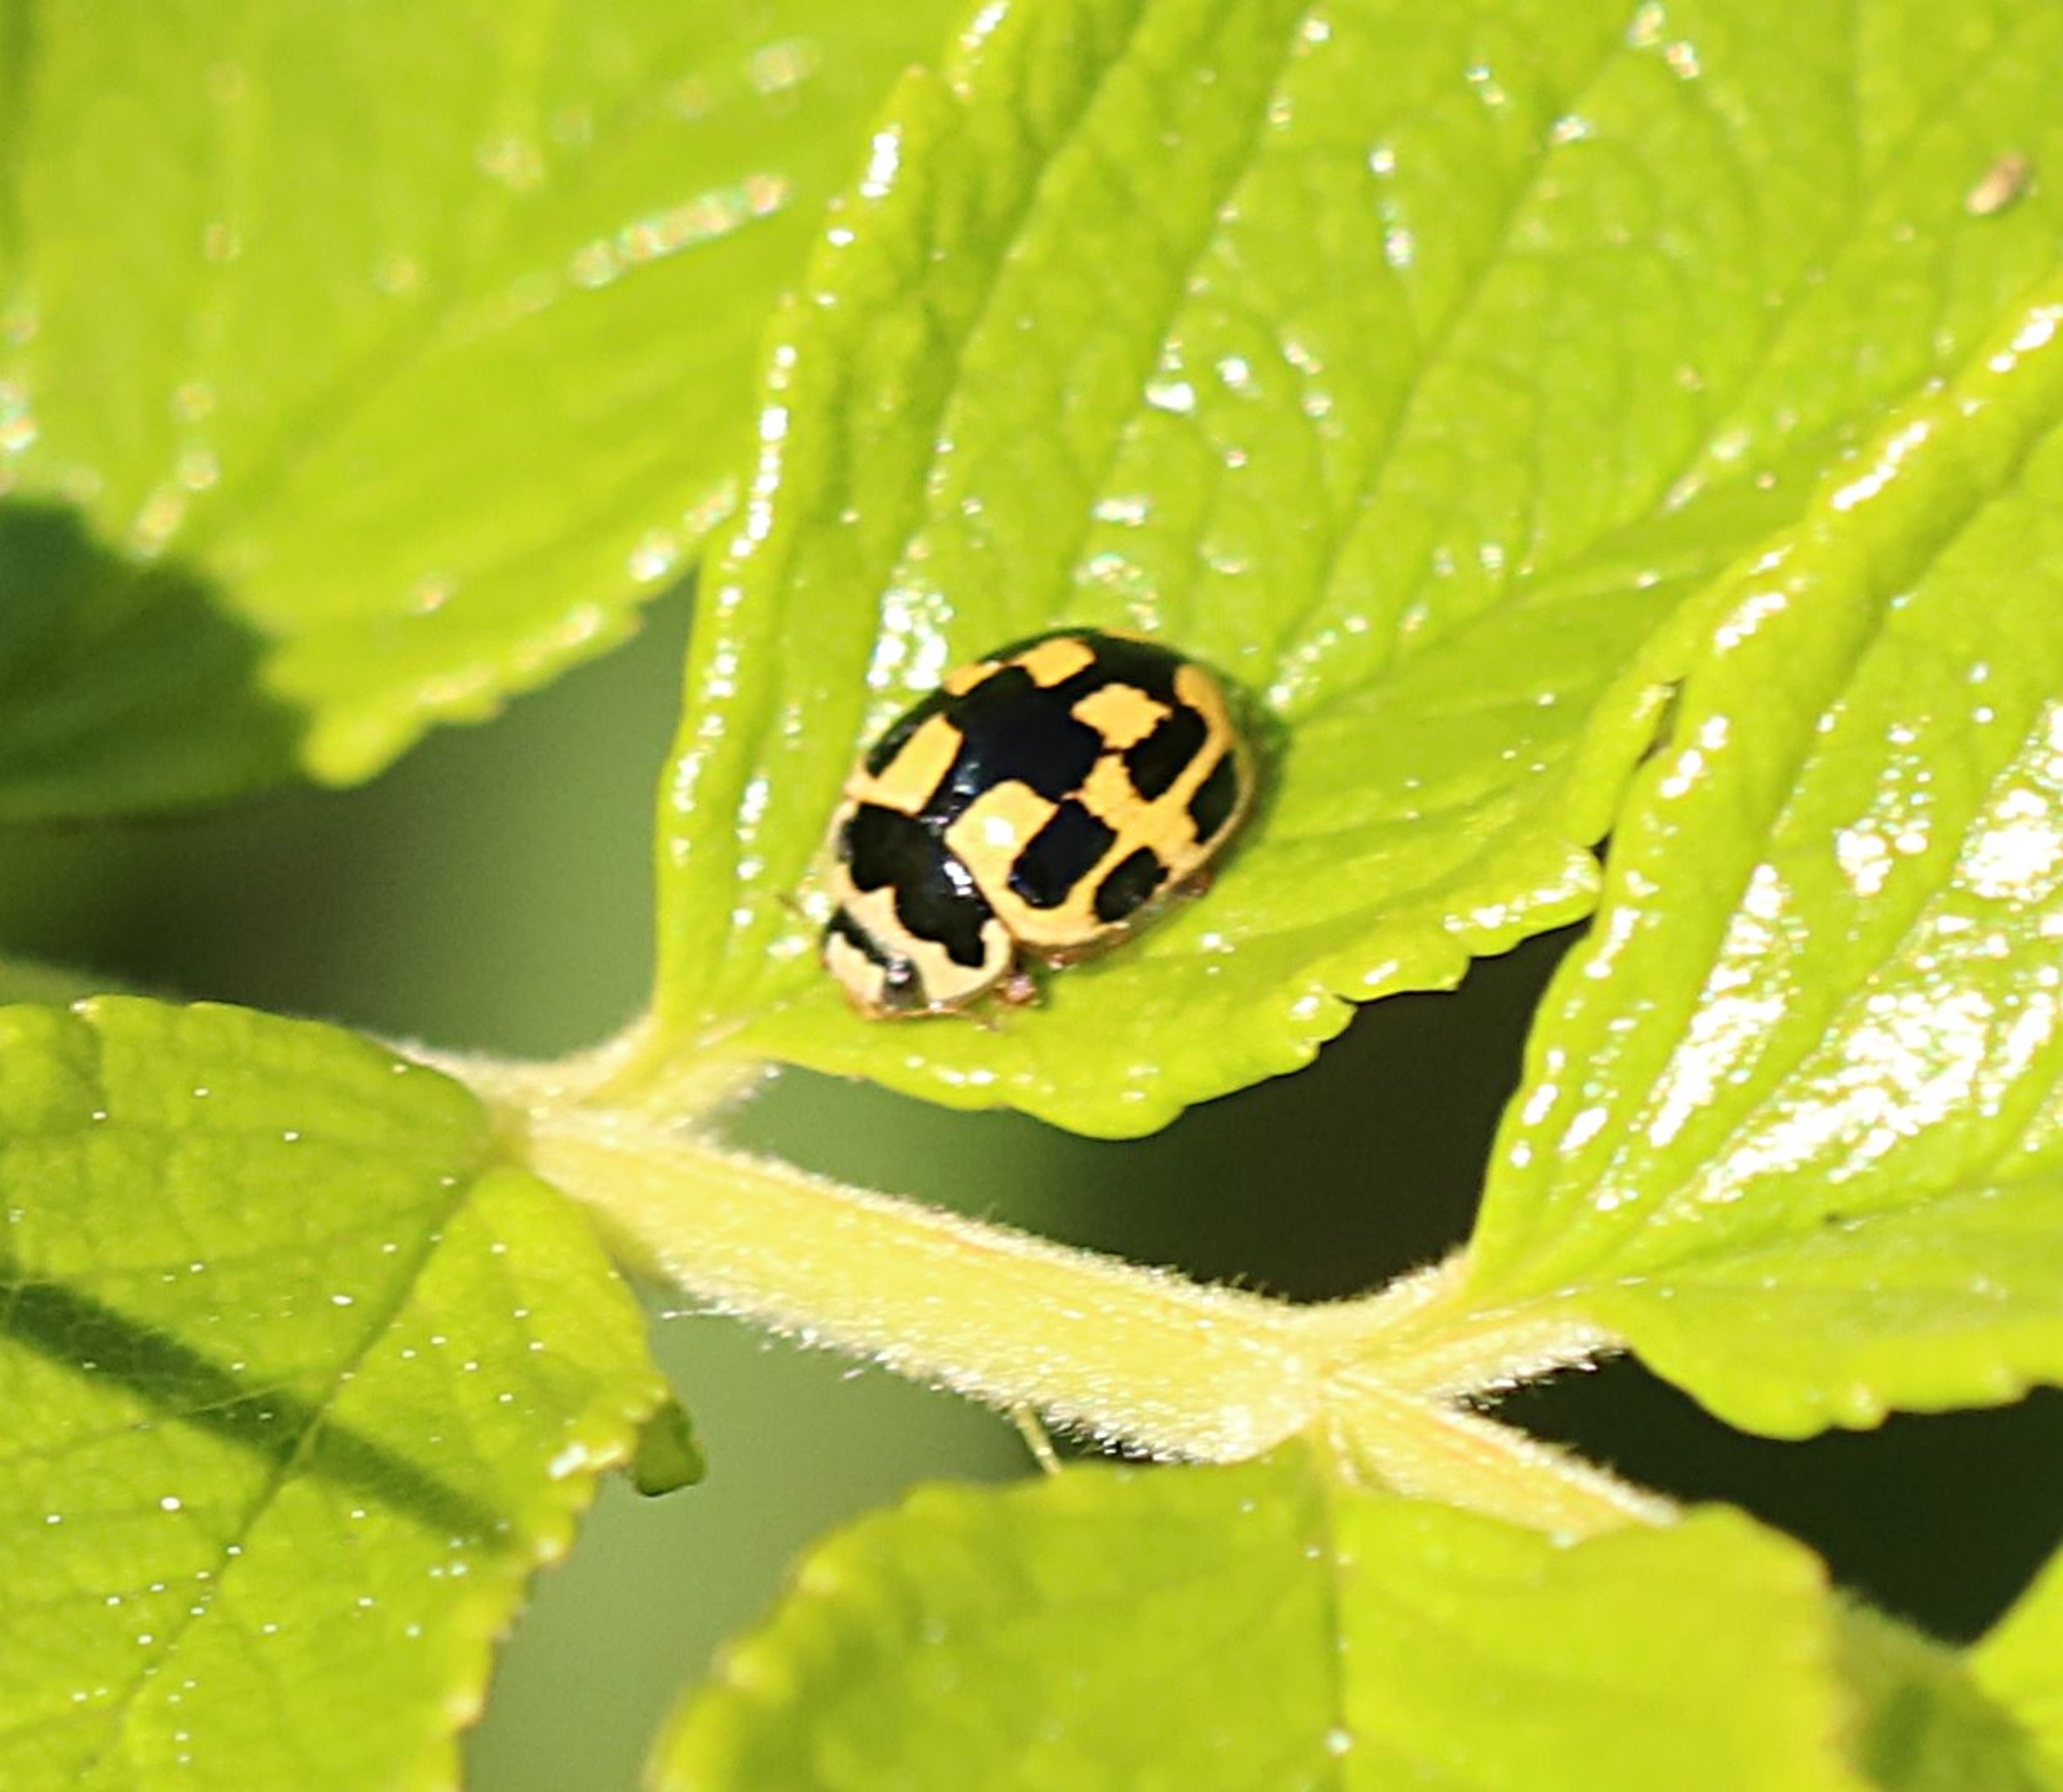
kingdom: Animalia
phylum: Arthropoda
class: Insecta
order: Coleoptera
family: Coccinellidae
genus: Propylaea
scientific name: Propylaea quatuordecimpunctata
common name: Skakbræt
